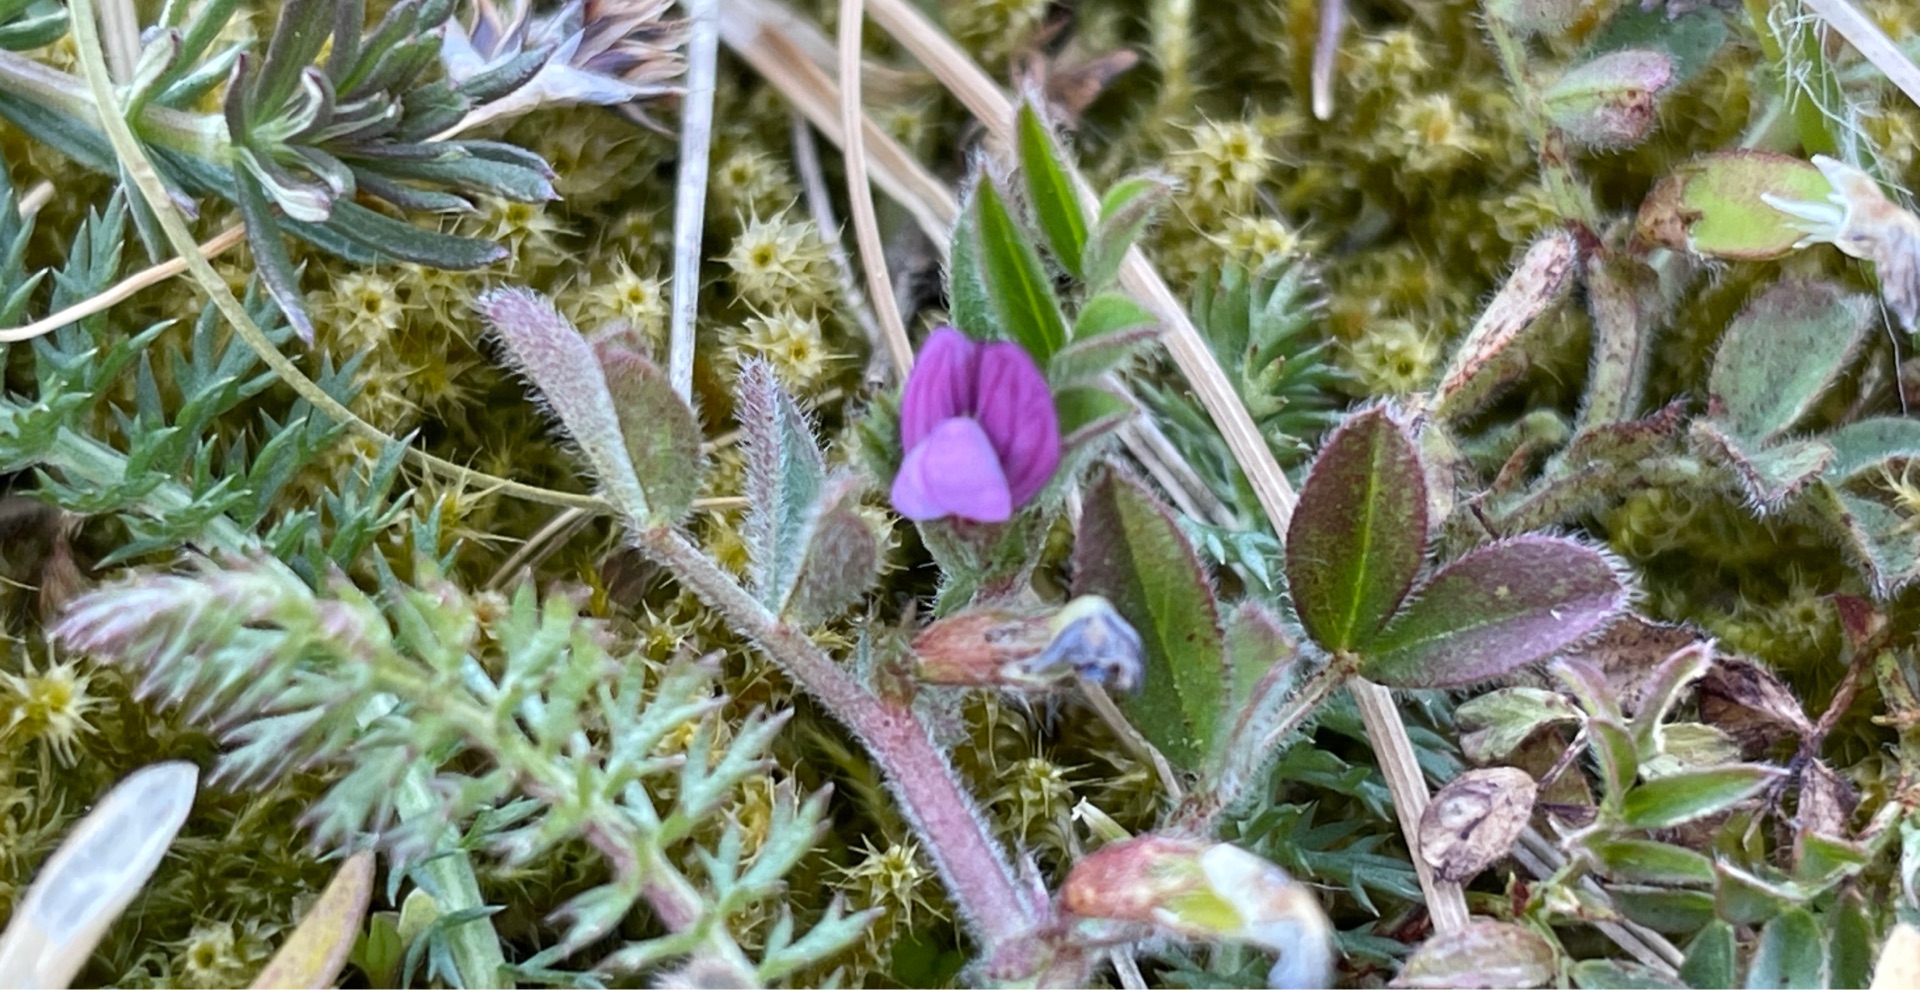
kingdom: Plantae
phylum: Tracheophyta
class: Magnoliopsida
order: Fabales
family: Fabaceae
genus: Vicia
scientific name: Vicia lathyroides
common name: Vår-vikke
